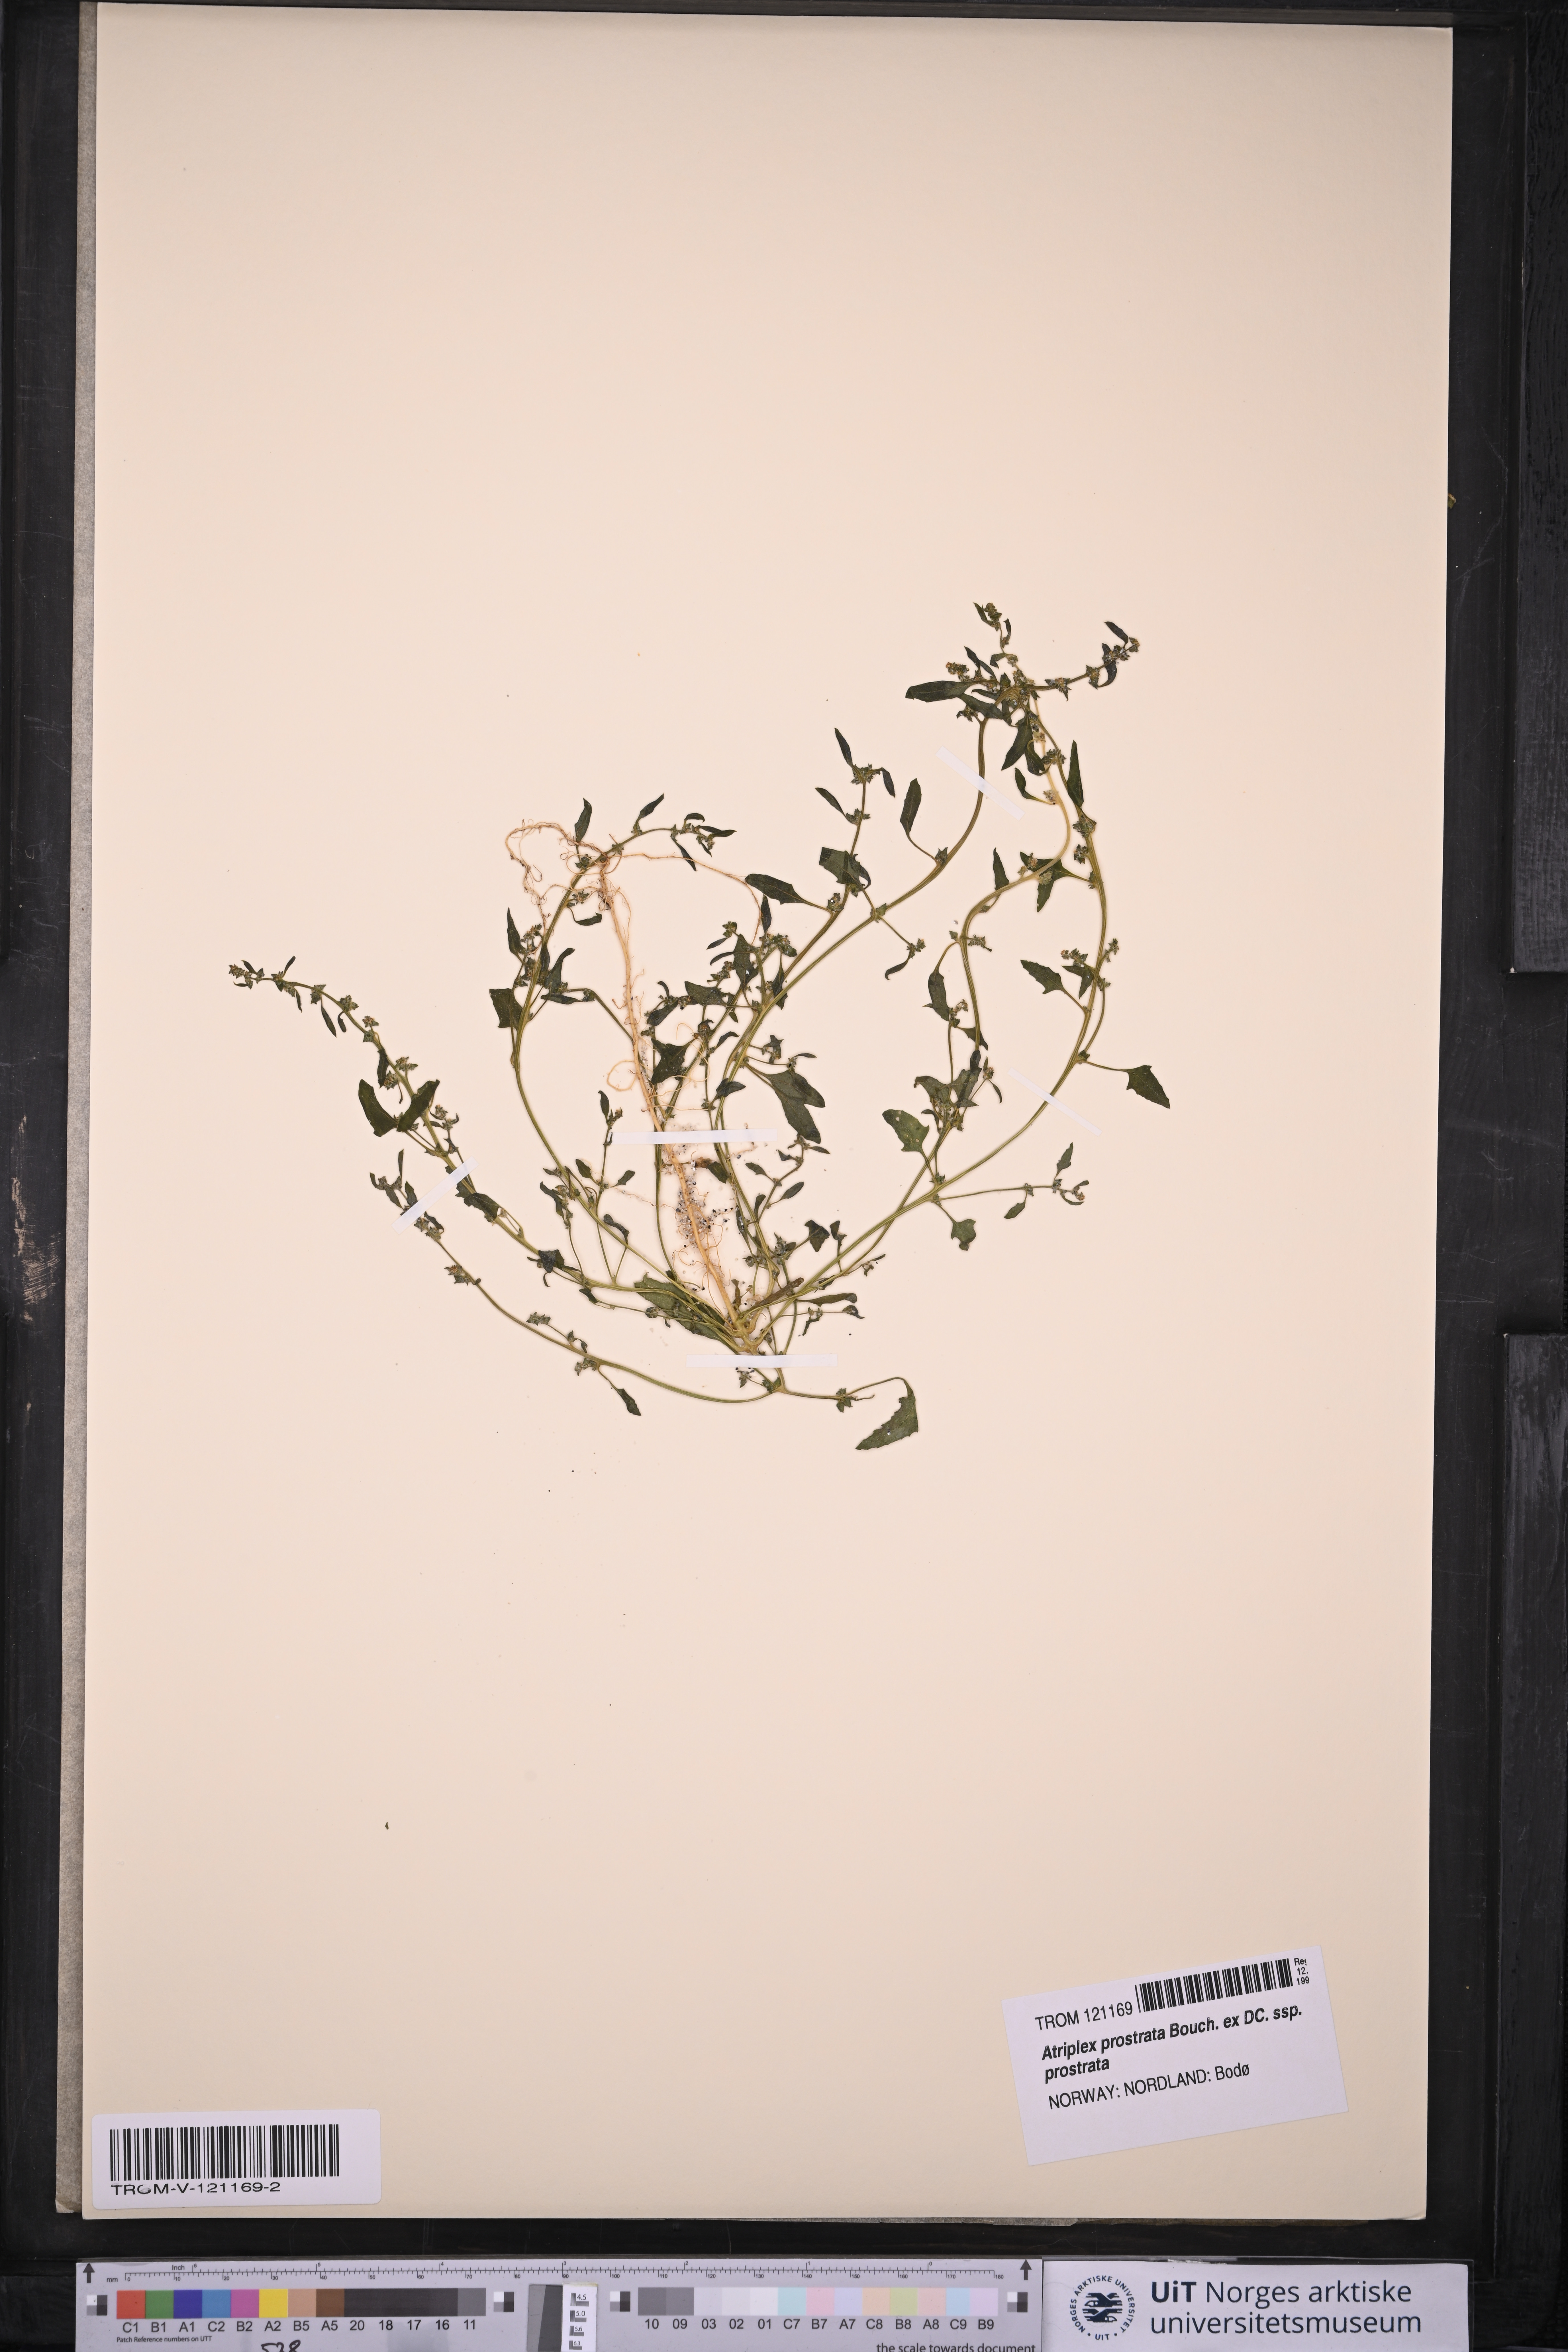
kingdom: Plantae
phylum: Tracheophyta
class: Magnoliopsida
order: Caryophyllales
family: Amaranthaceae
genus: Atriplex
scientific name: Atriplex prostrata
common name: Spear-leaved orache
